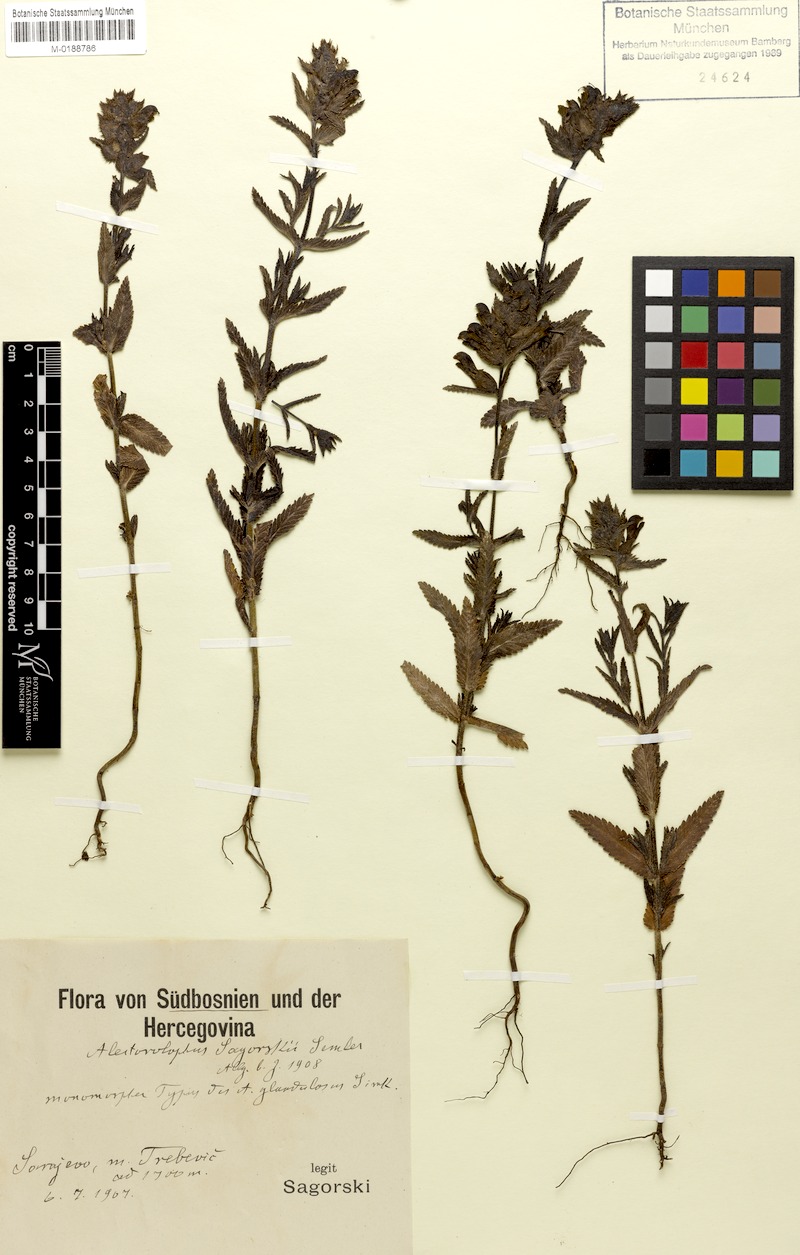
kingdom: Plantae
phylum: Tracheophyta
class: Magnoliopsida
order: Lamiales
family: Orobanchaceae
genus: Rhinanthus
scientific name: Rhinanthus rumelicus
